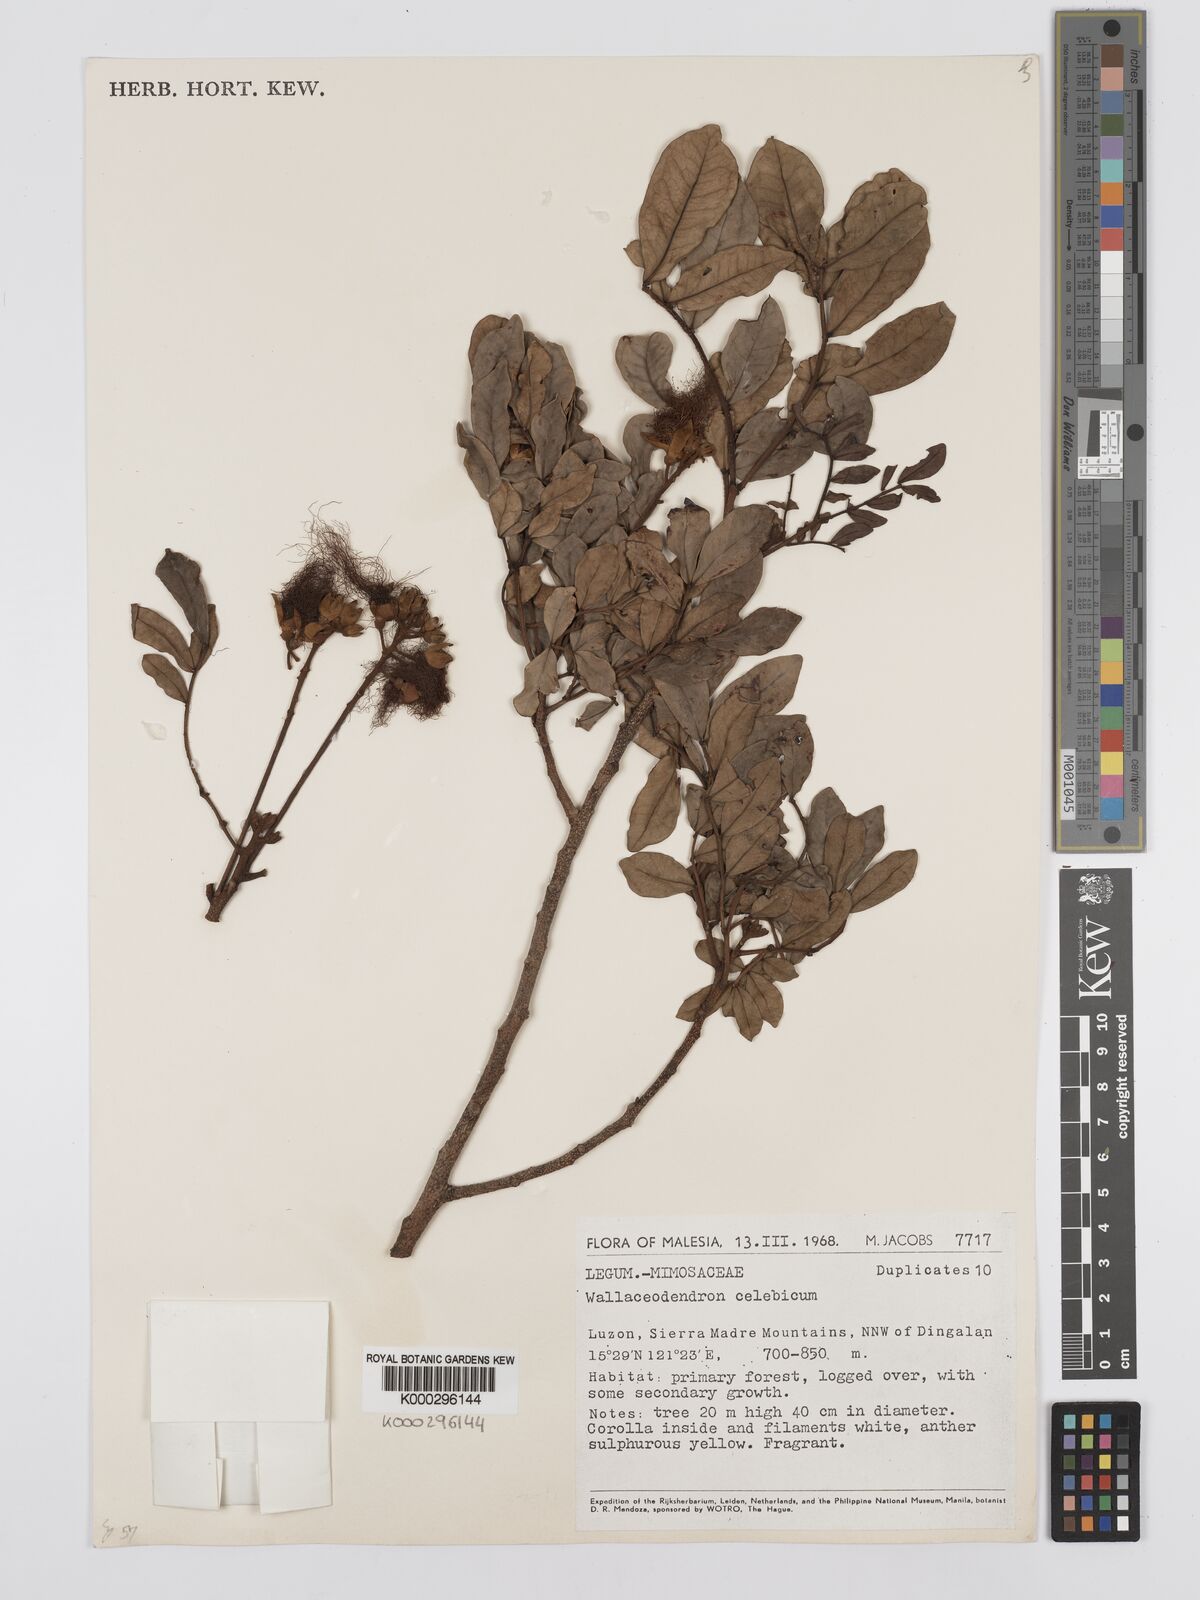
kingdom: Plantae
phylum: Tracheophyta
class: Magnoliopsida
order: Fabales
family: Fabaceae
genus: Wallaceodendron
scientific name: Wallaceodendron celebicum
